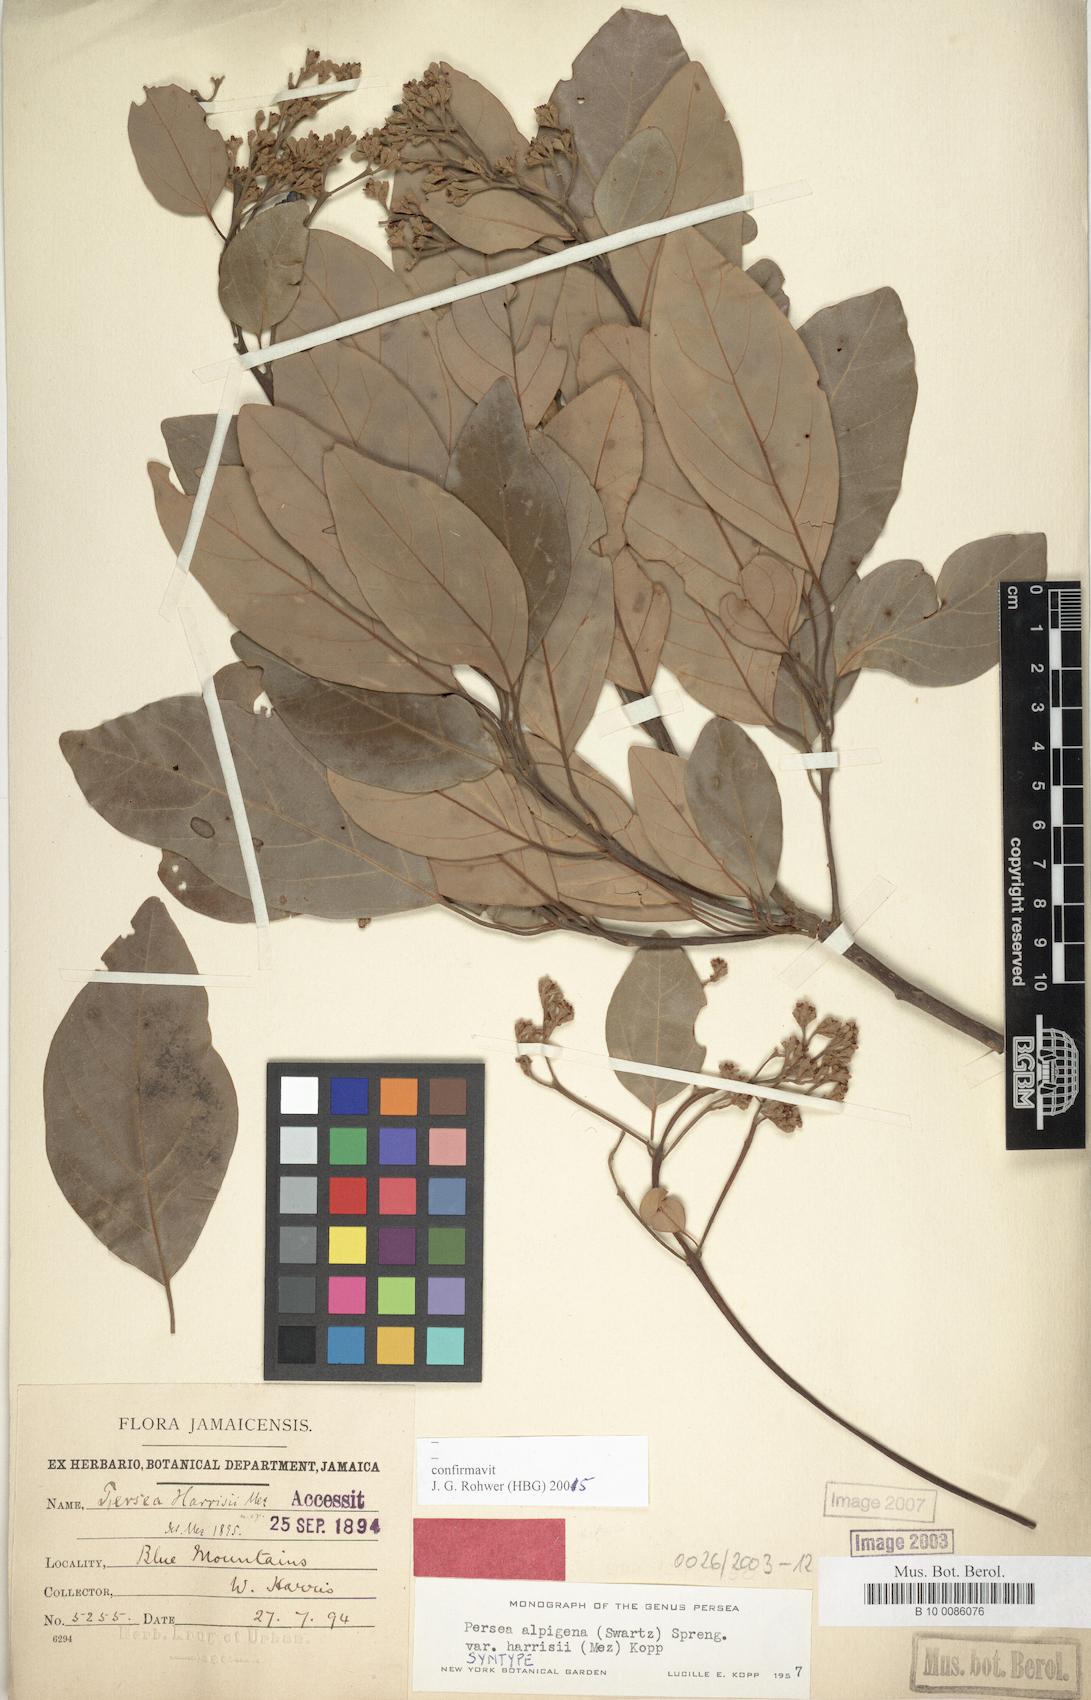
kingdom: Plantae
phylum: Tracheophyta
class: Magnoliopsida
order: Laurales
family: Lauraceae
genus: Persea
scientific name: Persea alpigena
